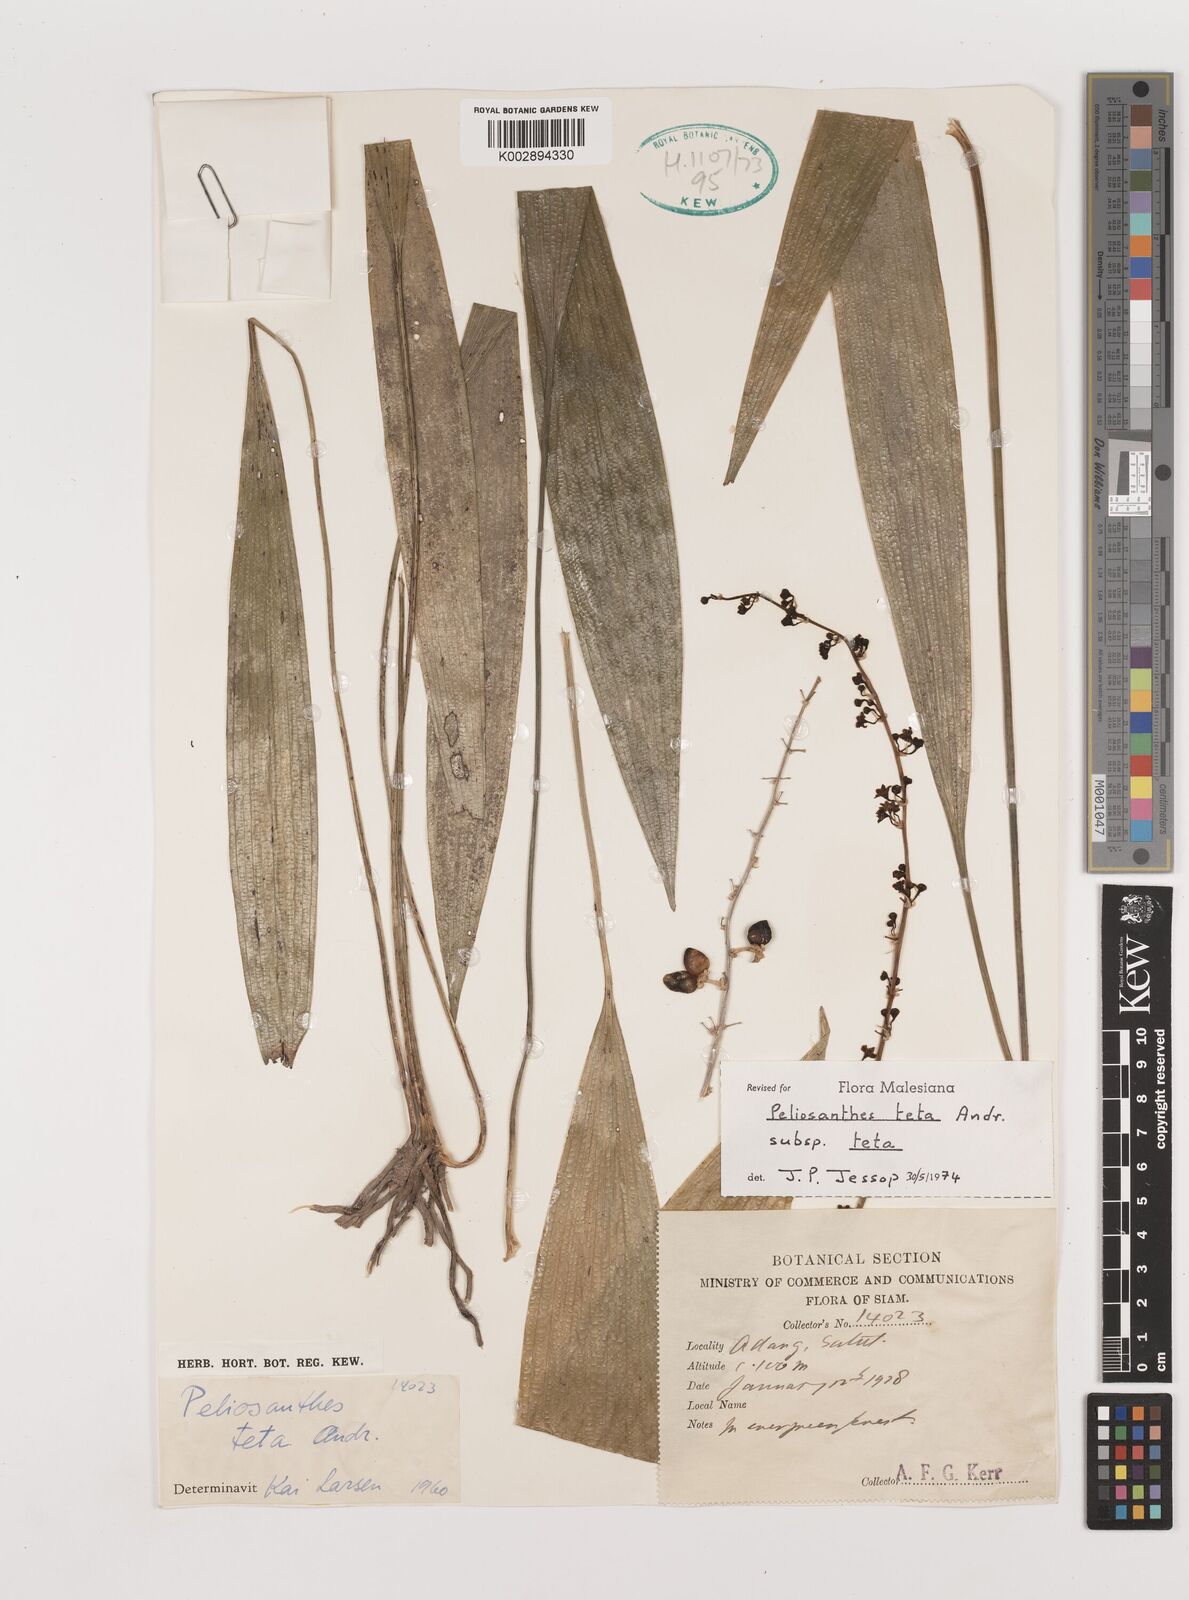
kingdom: Plantae
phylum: Tracheophyta
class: Liliopsida
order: Asparagales
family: Asparagaceae
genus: Peliosanthes
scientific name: Peliosanthes teta
